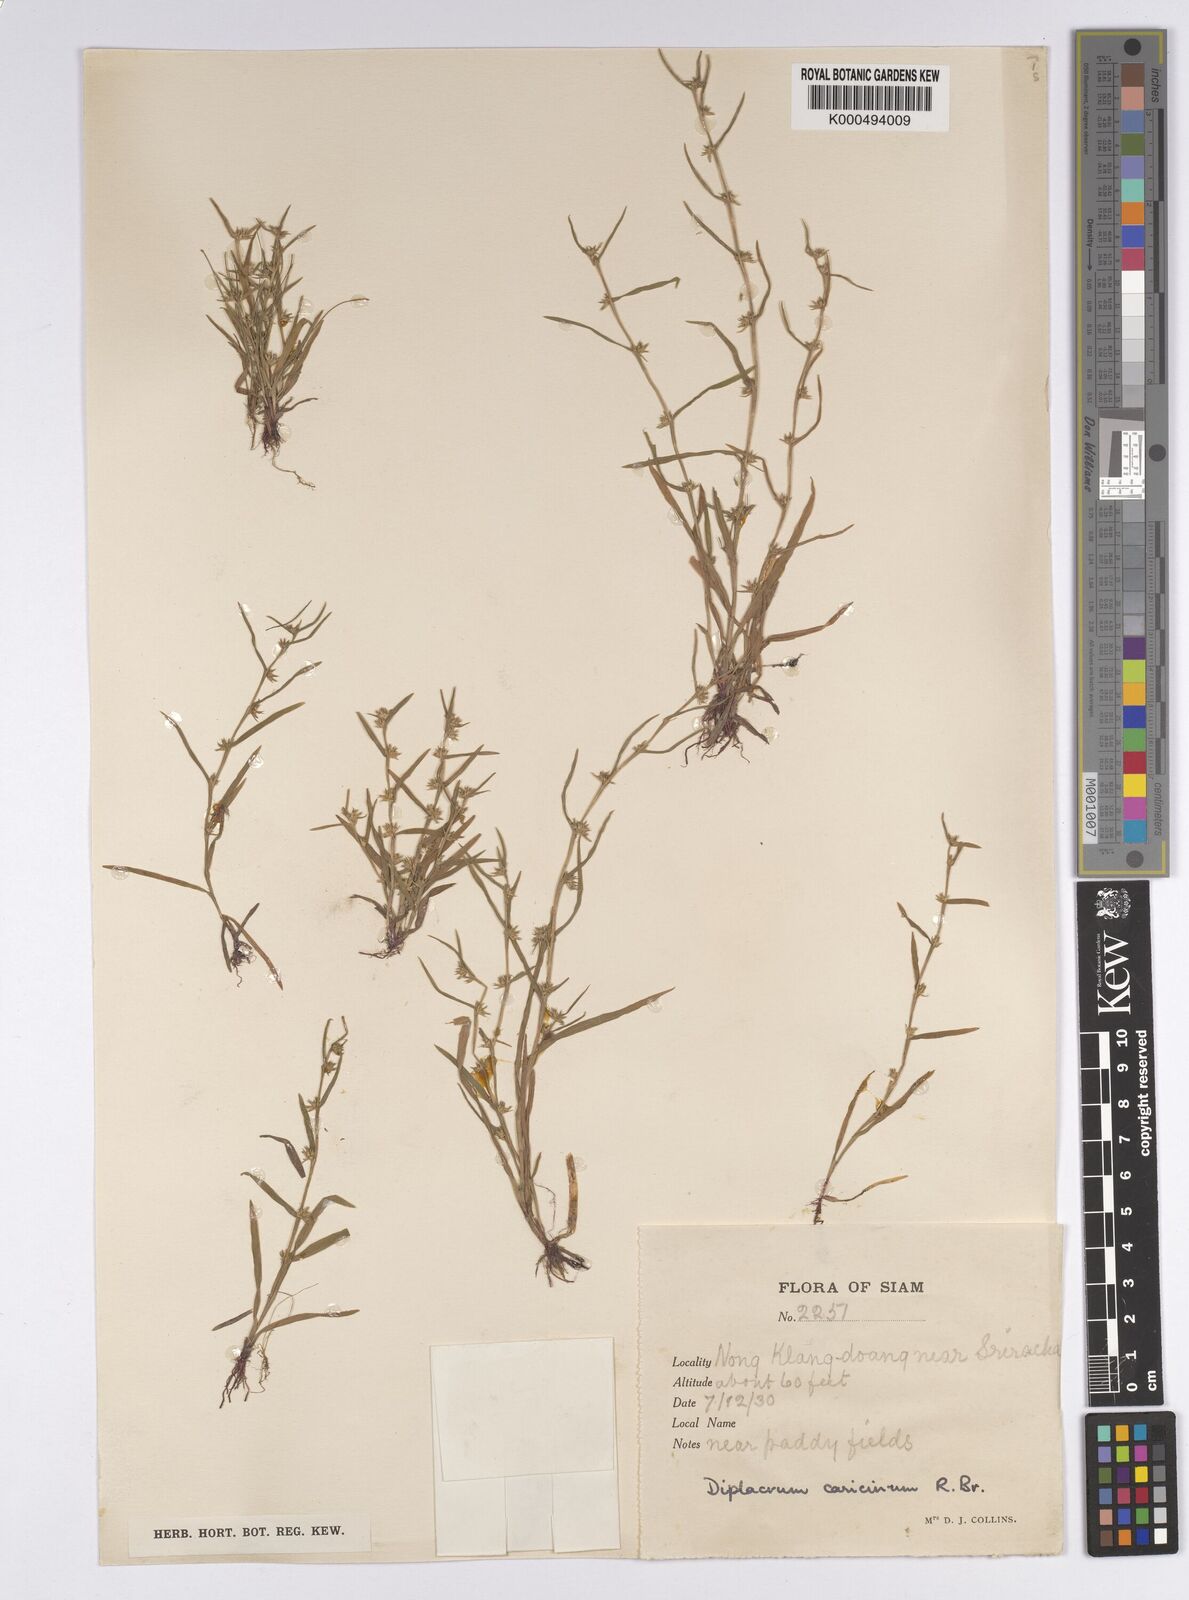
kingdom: Plantae
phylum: Tracheophyta
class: Liliopsida
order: Poales
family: Cyperaceae
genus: Diplacrum
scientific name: Diplacrum caricinum
